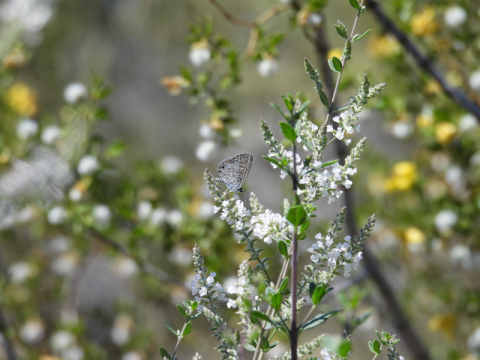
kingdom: Animalia
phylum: Arthropoda
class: Insecta
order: Lepidoptera
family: Lycaenidae
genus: Leptotes
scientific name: Leptotes marina
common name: Marine Blue
